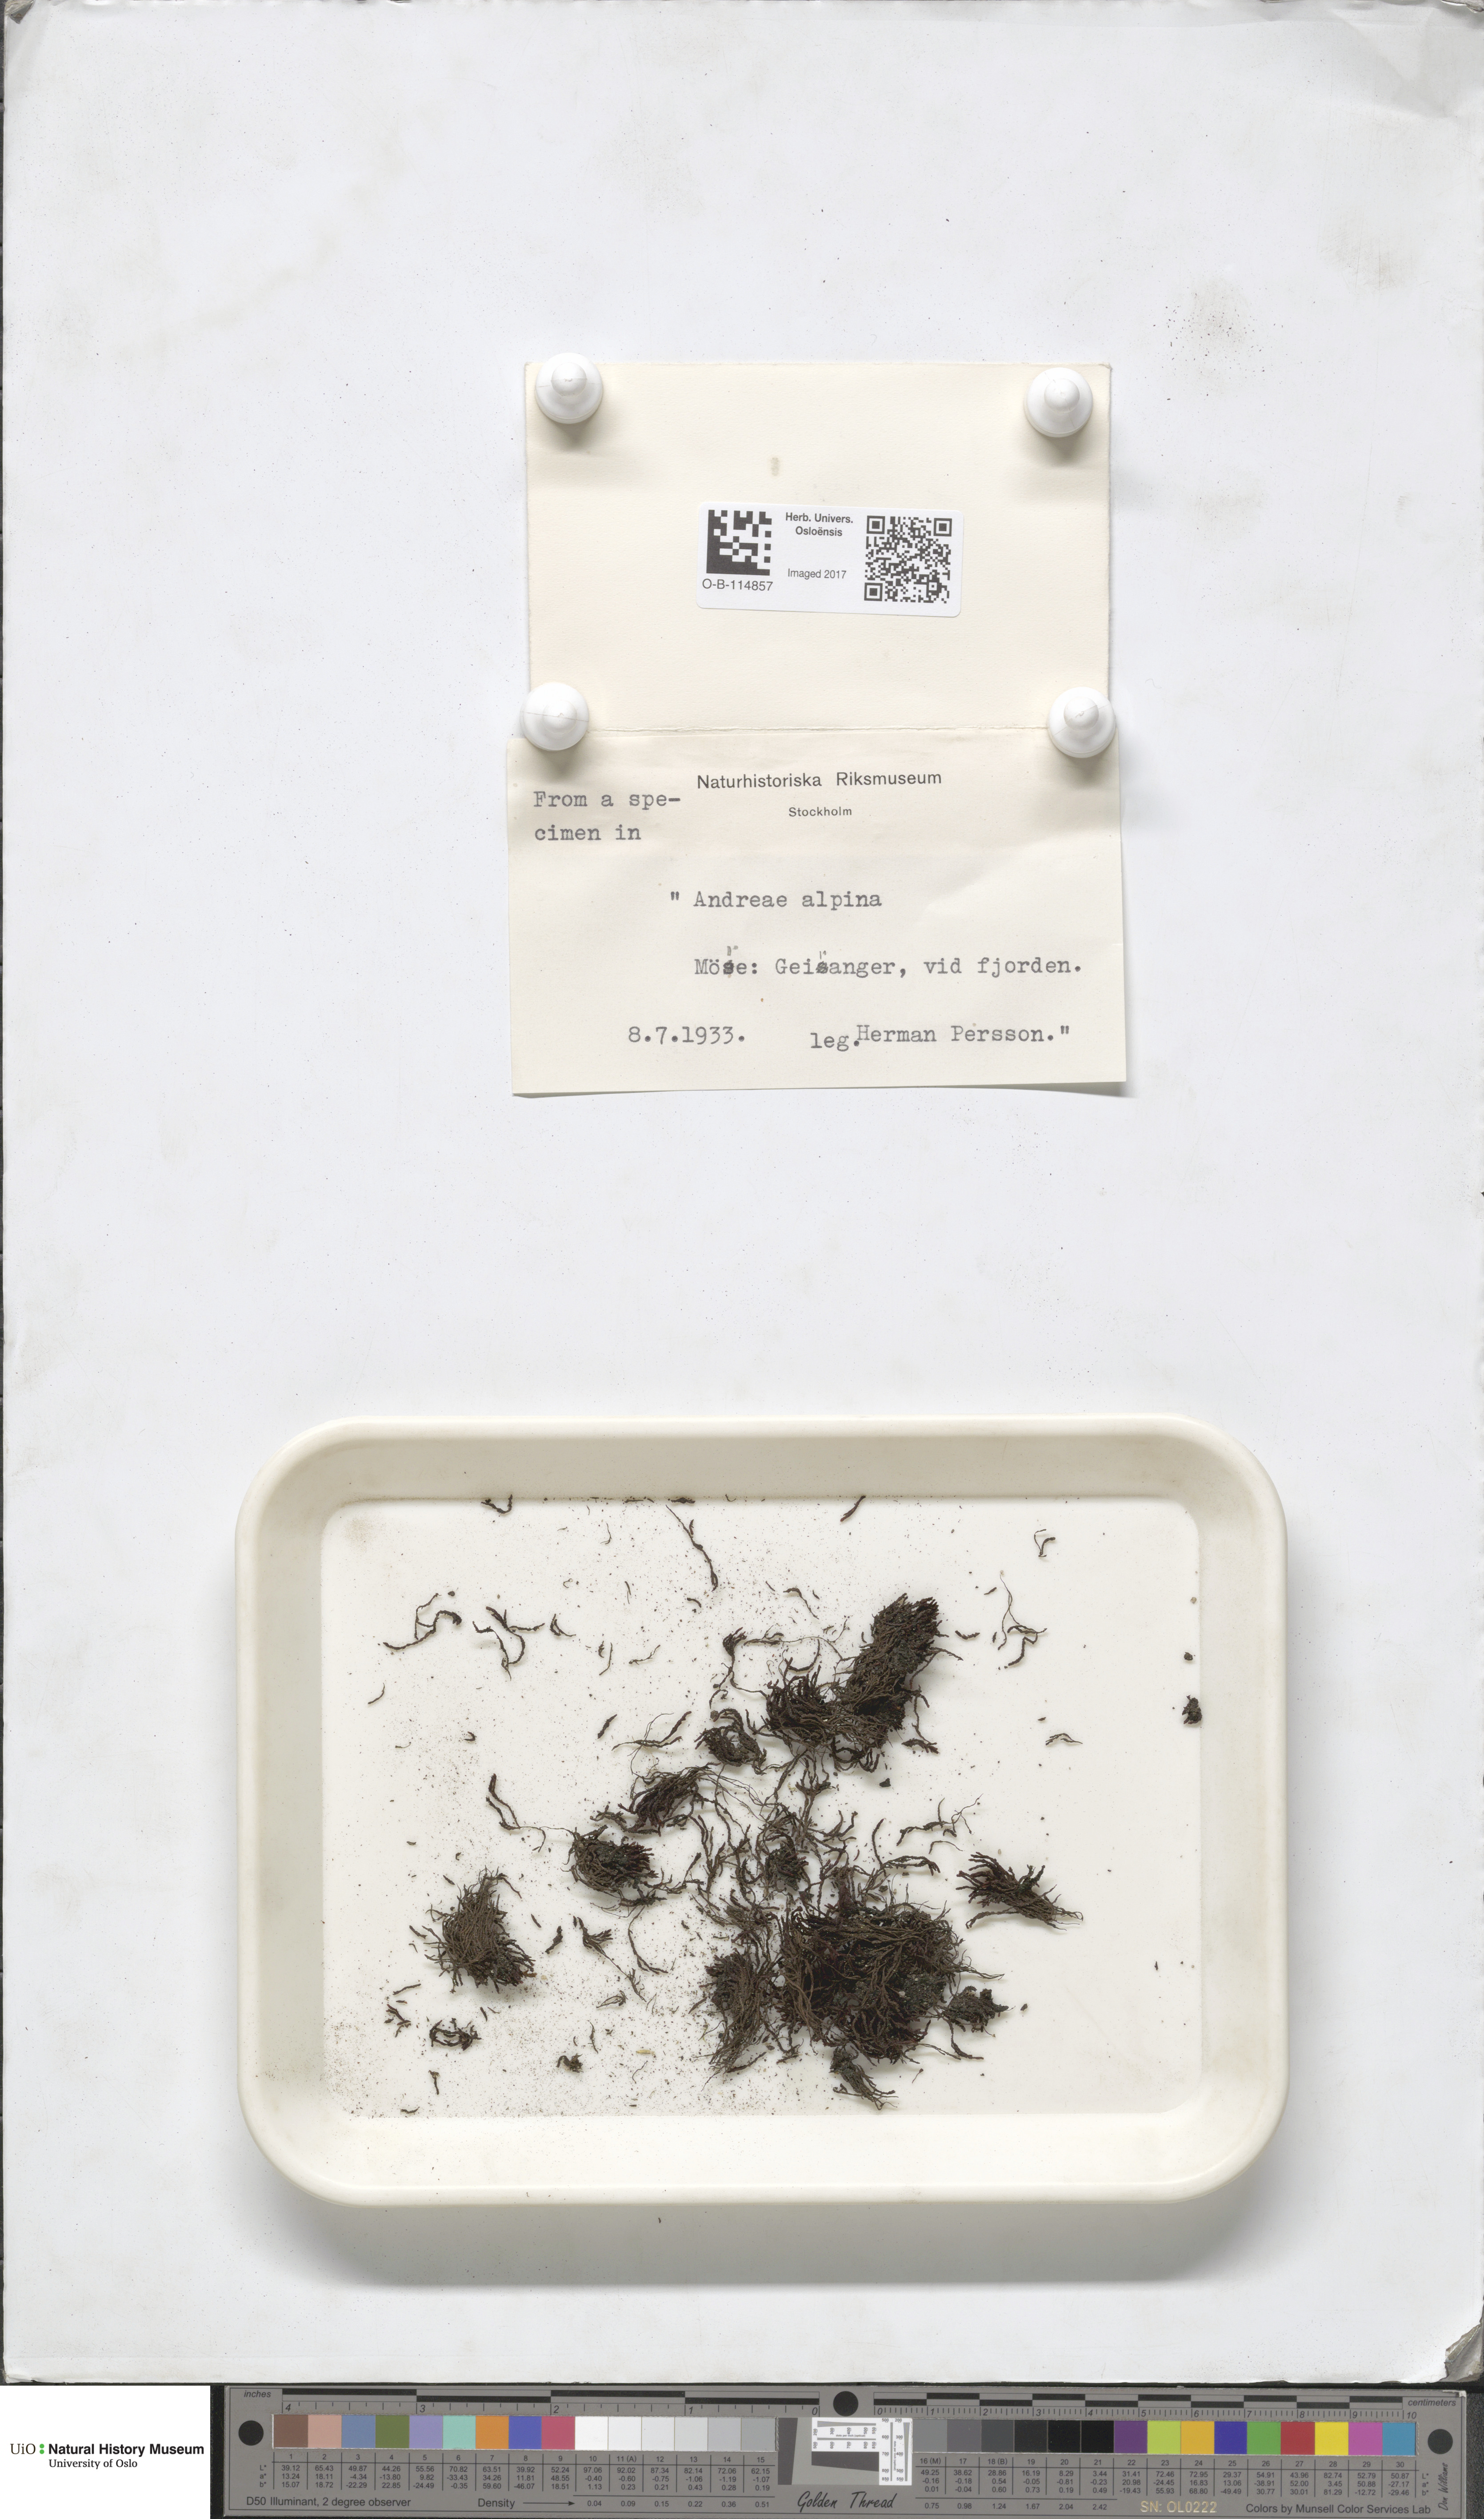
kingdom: Plantae
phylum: Bryophyta
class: Andreaeopsida
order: Andreaeales
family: Andreaeaceae
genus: Andreaea
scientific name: Andreaea hookeri
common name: Alpine rock-moss
